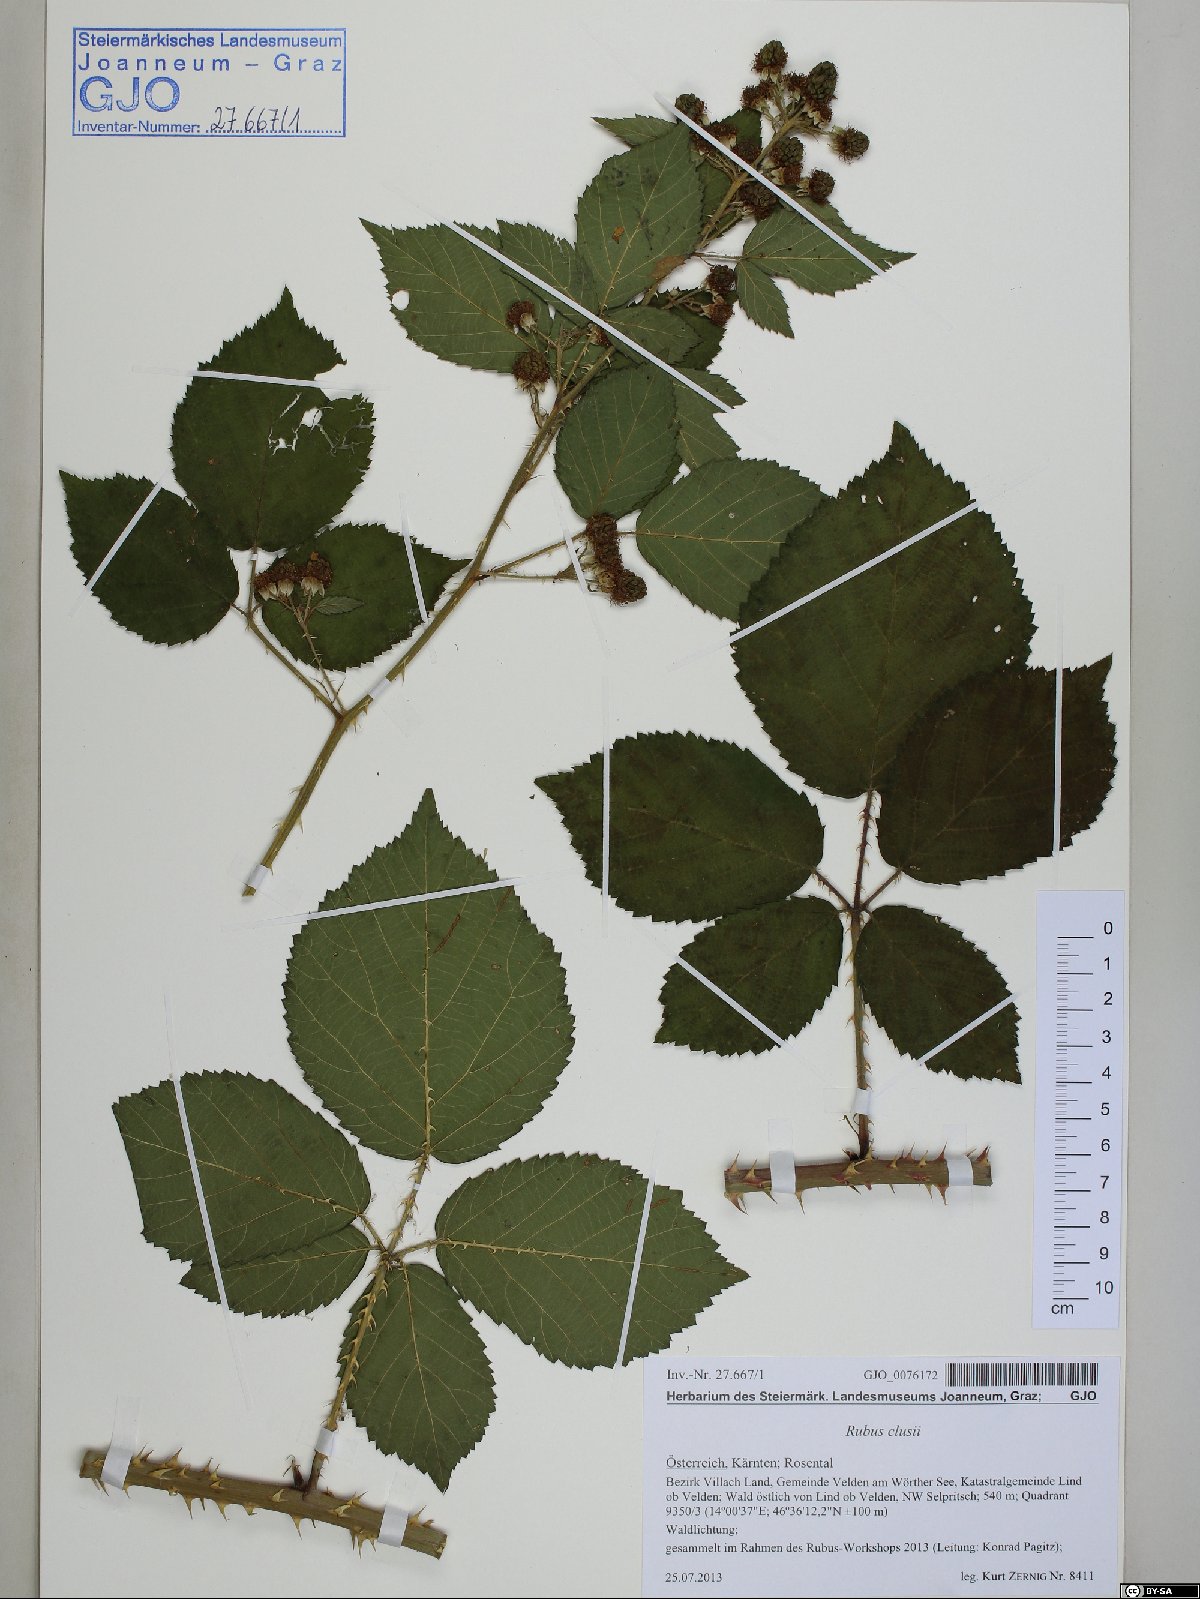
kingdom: Plantae
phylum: Tracheophyta
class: Magnoliopsida
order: Rosales
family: Rosaceae
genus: Rubus
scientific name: Rubus clusii
